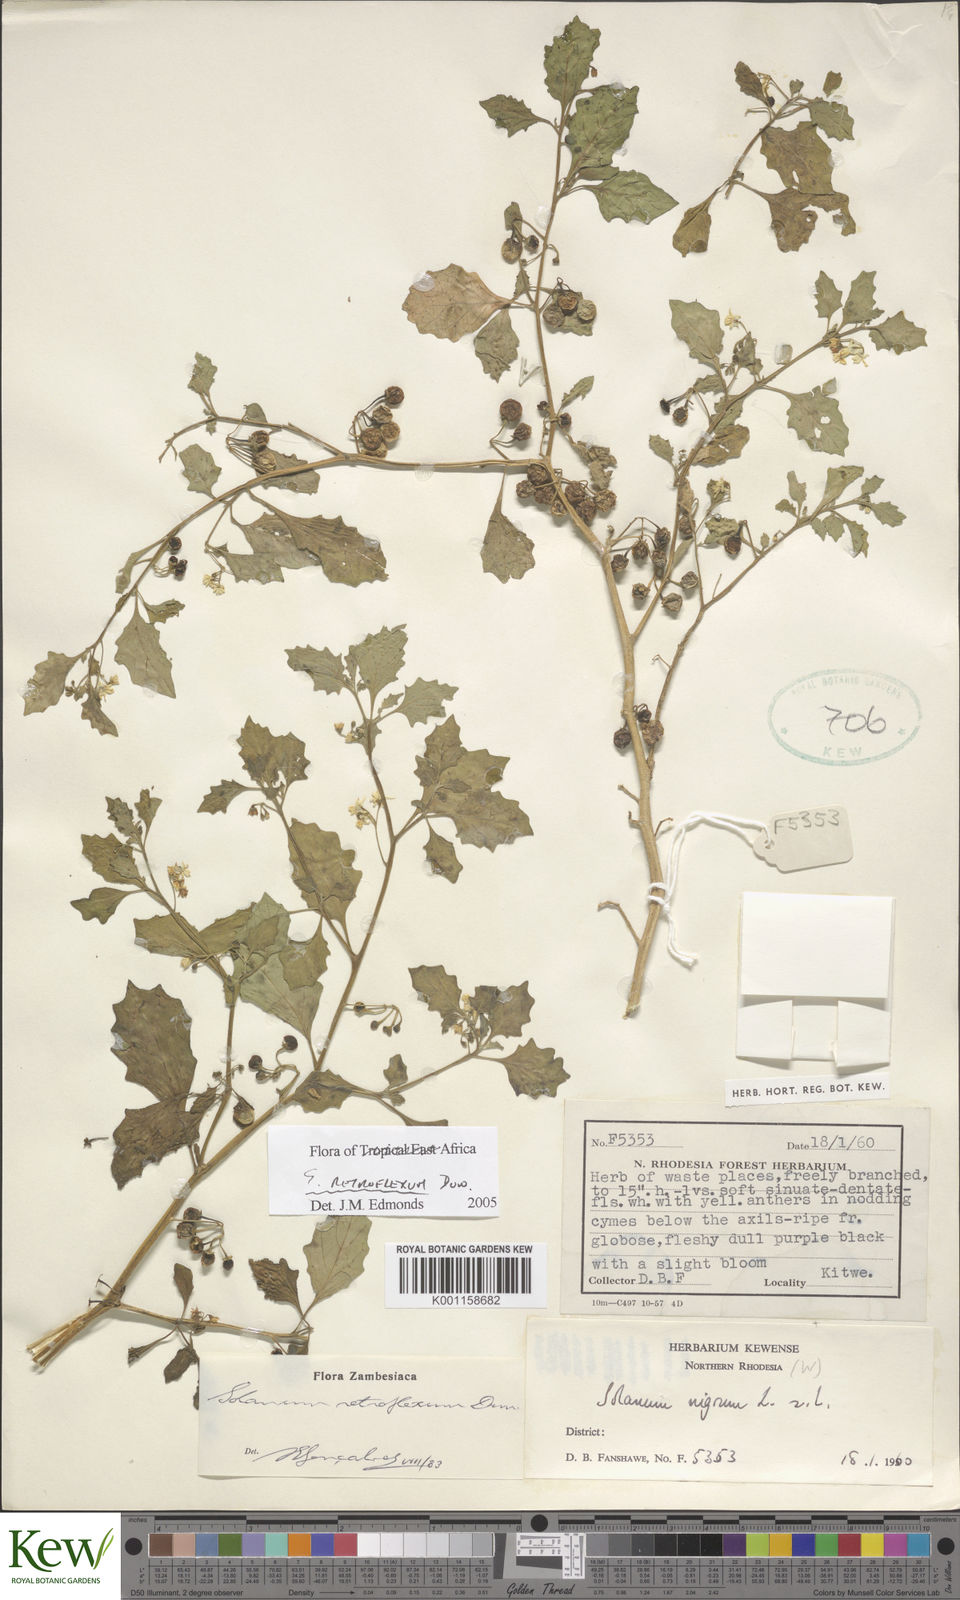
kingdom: Plantae
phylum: Tracheophyta
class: Magnoliopsida
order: Solanales
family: Solanaceae
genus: Solanum
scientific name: Solanum retroflexum
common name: Wonderberry
